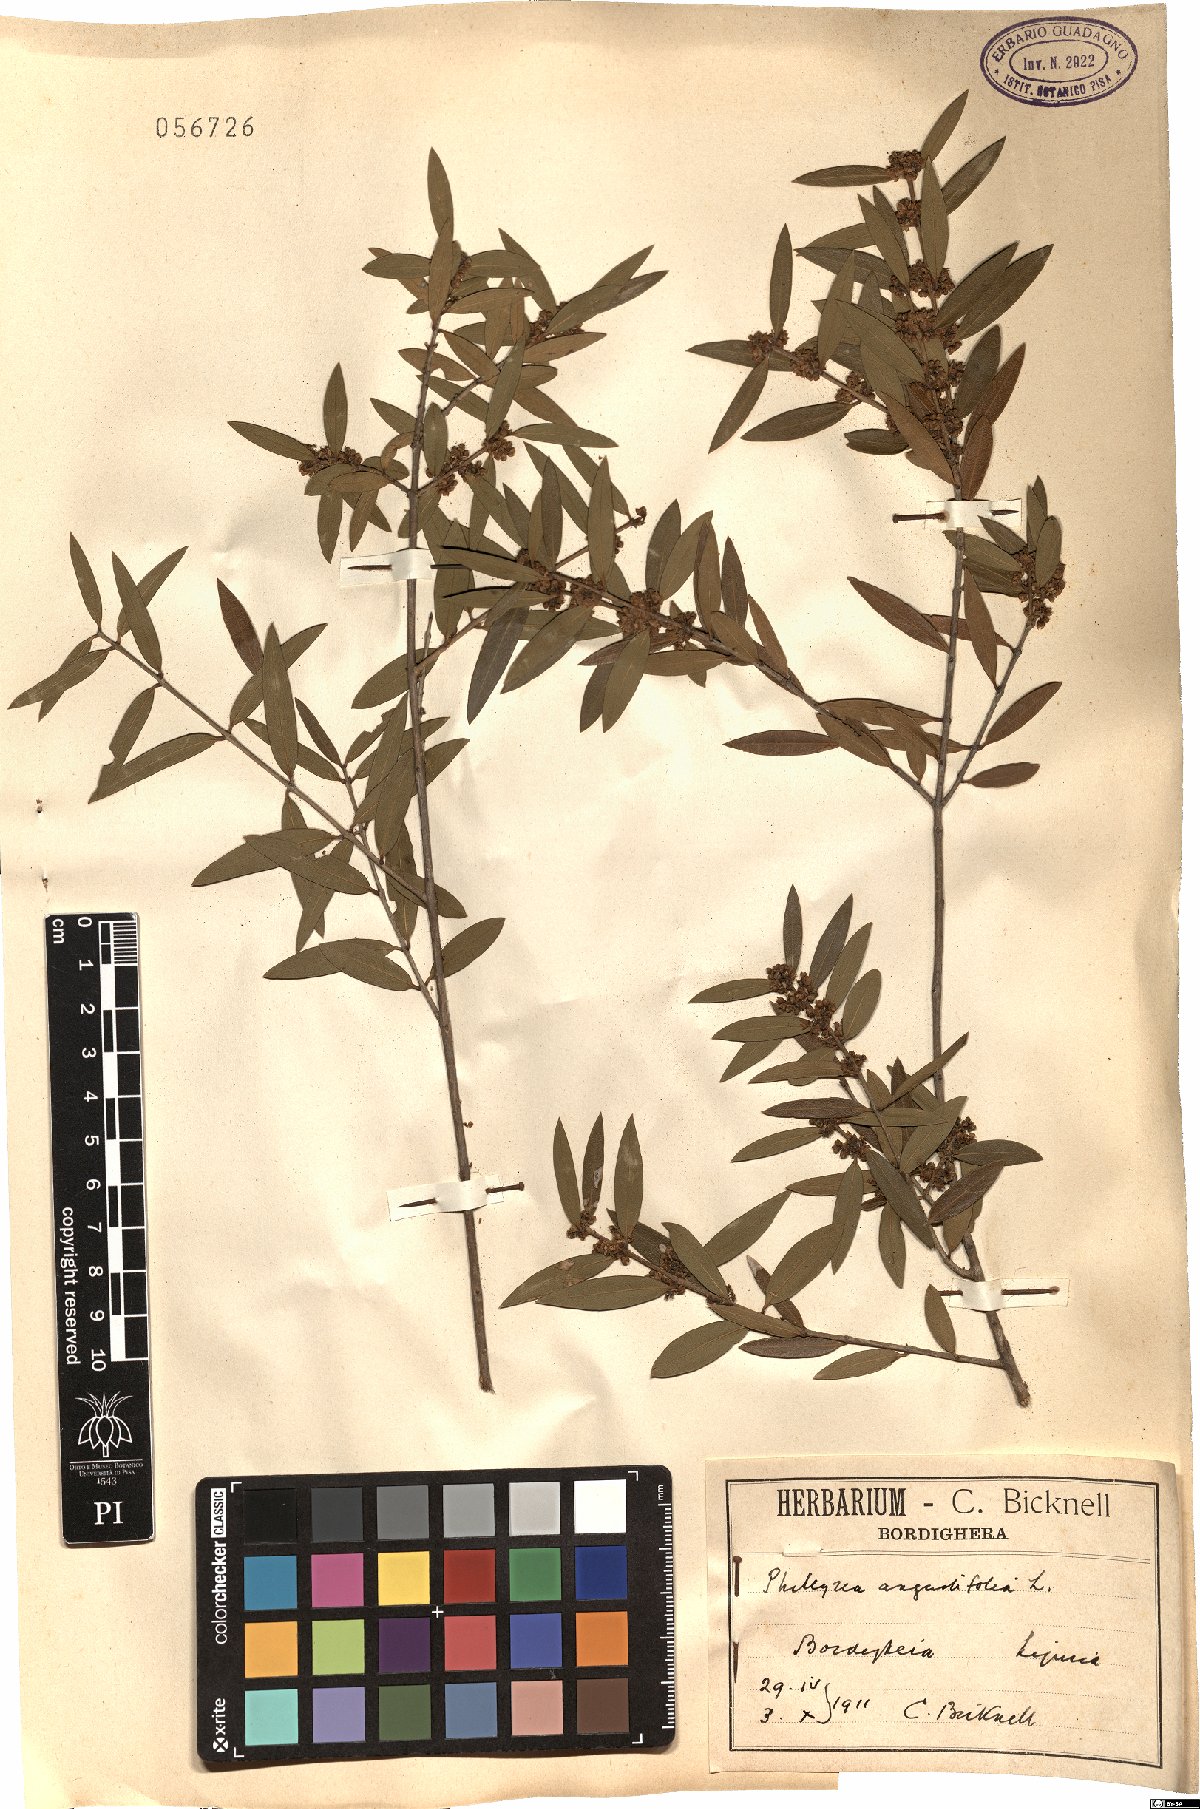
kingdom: Plantae
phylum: Tracheophyta
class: Magnoliopsida
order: Lamiales
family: Oleaceae
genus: Phillyrea
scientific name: Phillyrea angustifolia
